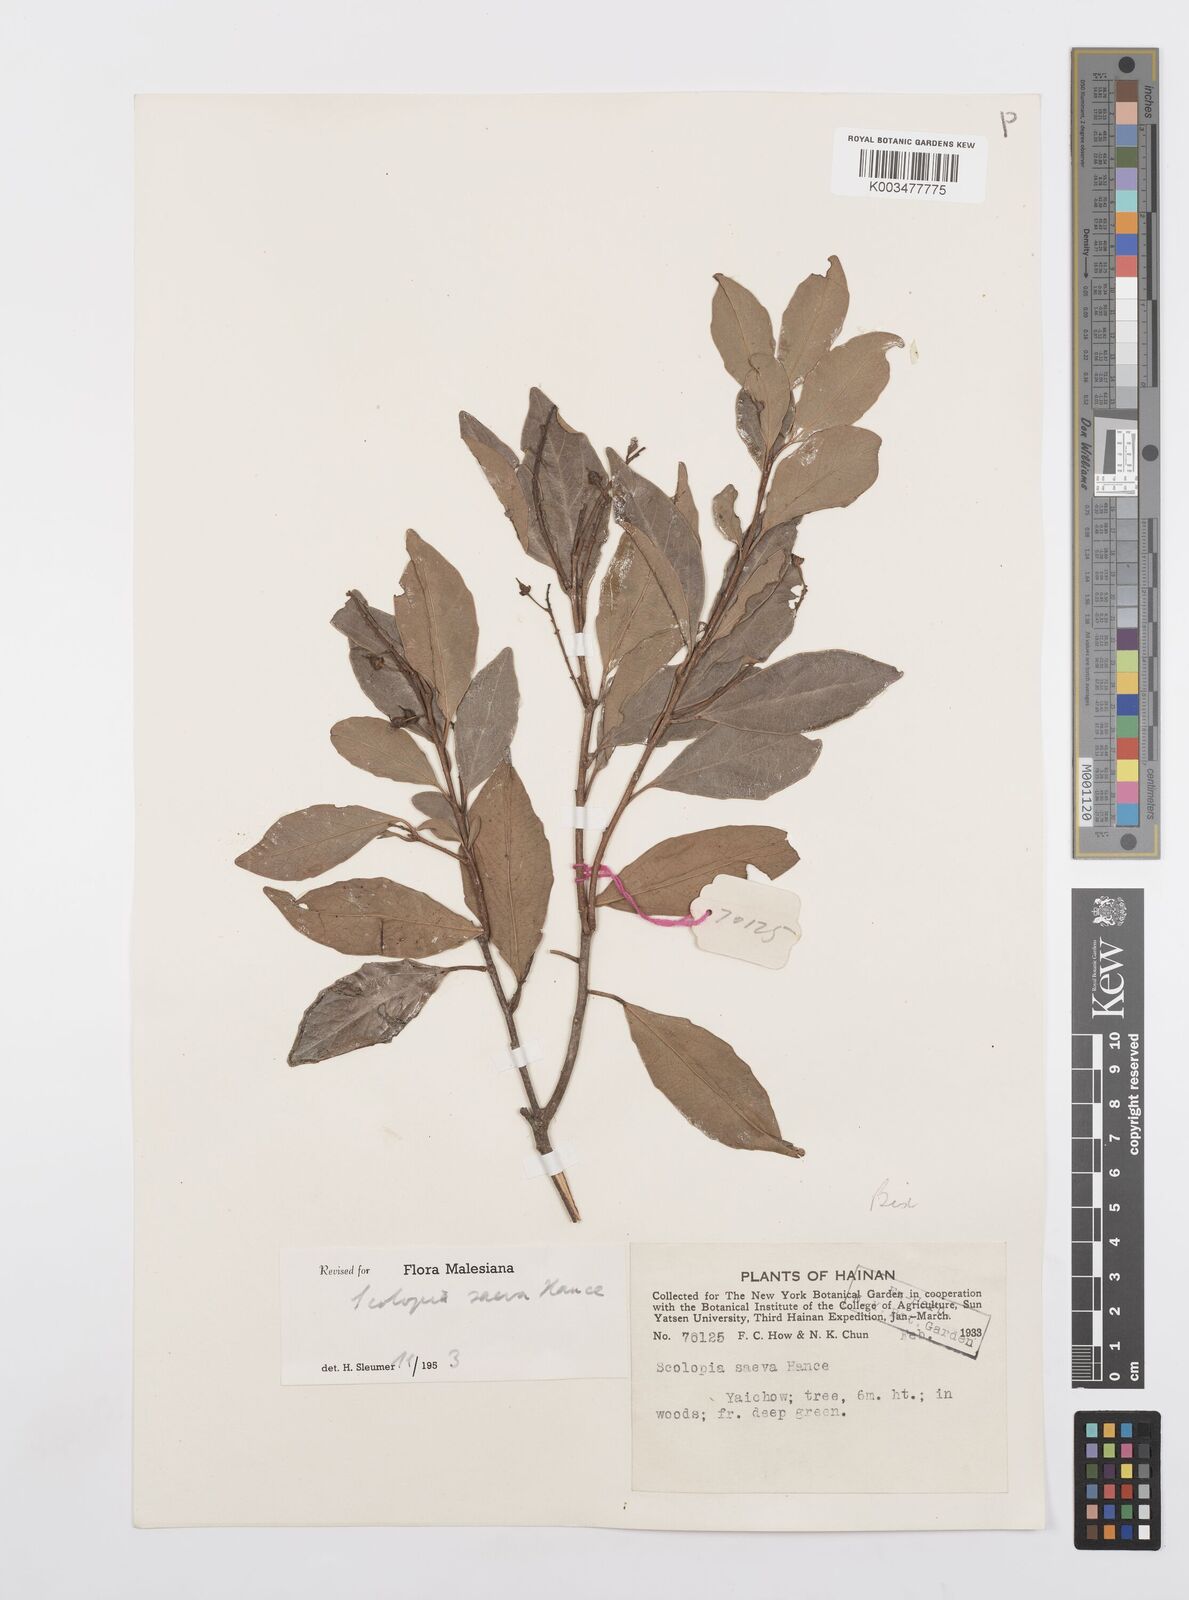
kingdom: Plantae
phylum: Tracheophyta
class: Magnoliopsida
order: Malpighiales
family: Salicaceae
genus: Scolopia
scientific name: Scolopia saeva
